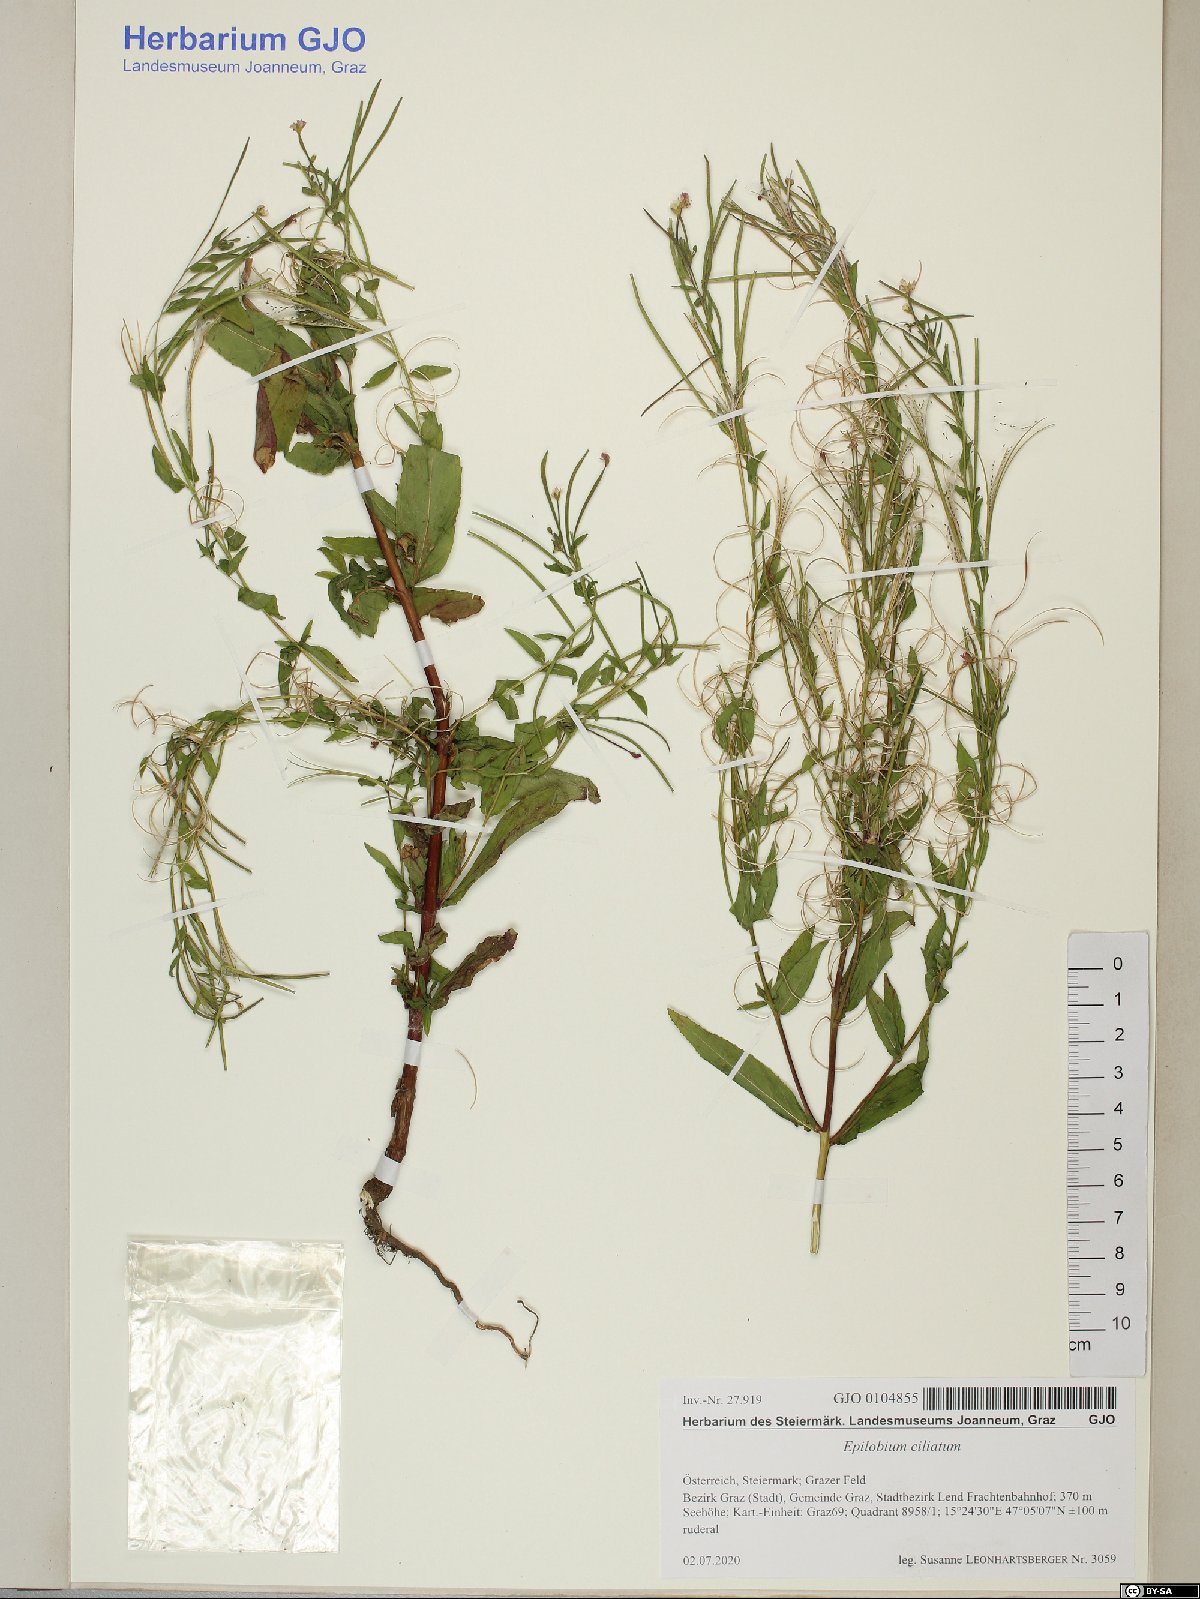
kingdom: Plantae
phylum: Tracheophyta
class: Magnoliopsida
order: Myrtales
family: Onagraceae
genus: Epilobium
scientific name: Epilobium ciliatum
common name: American willowherb
